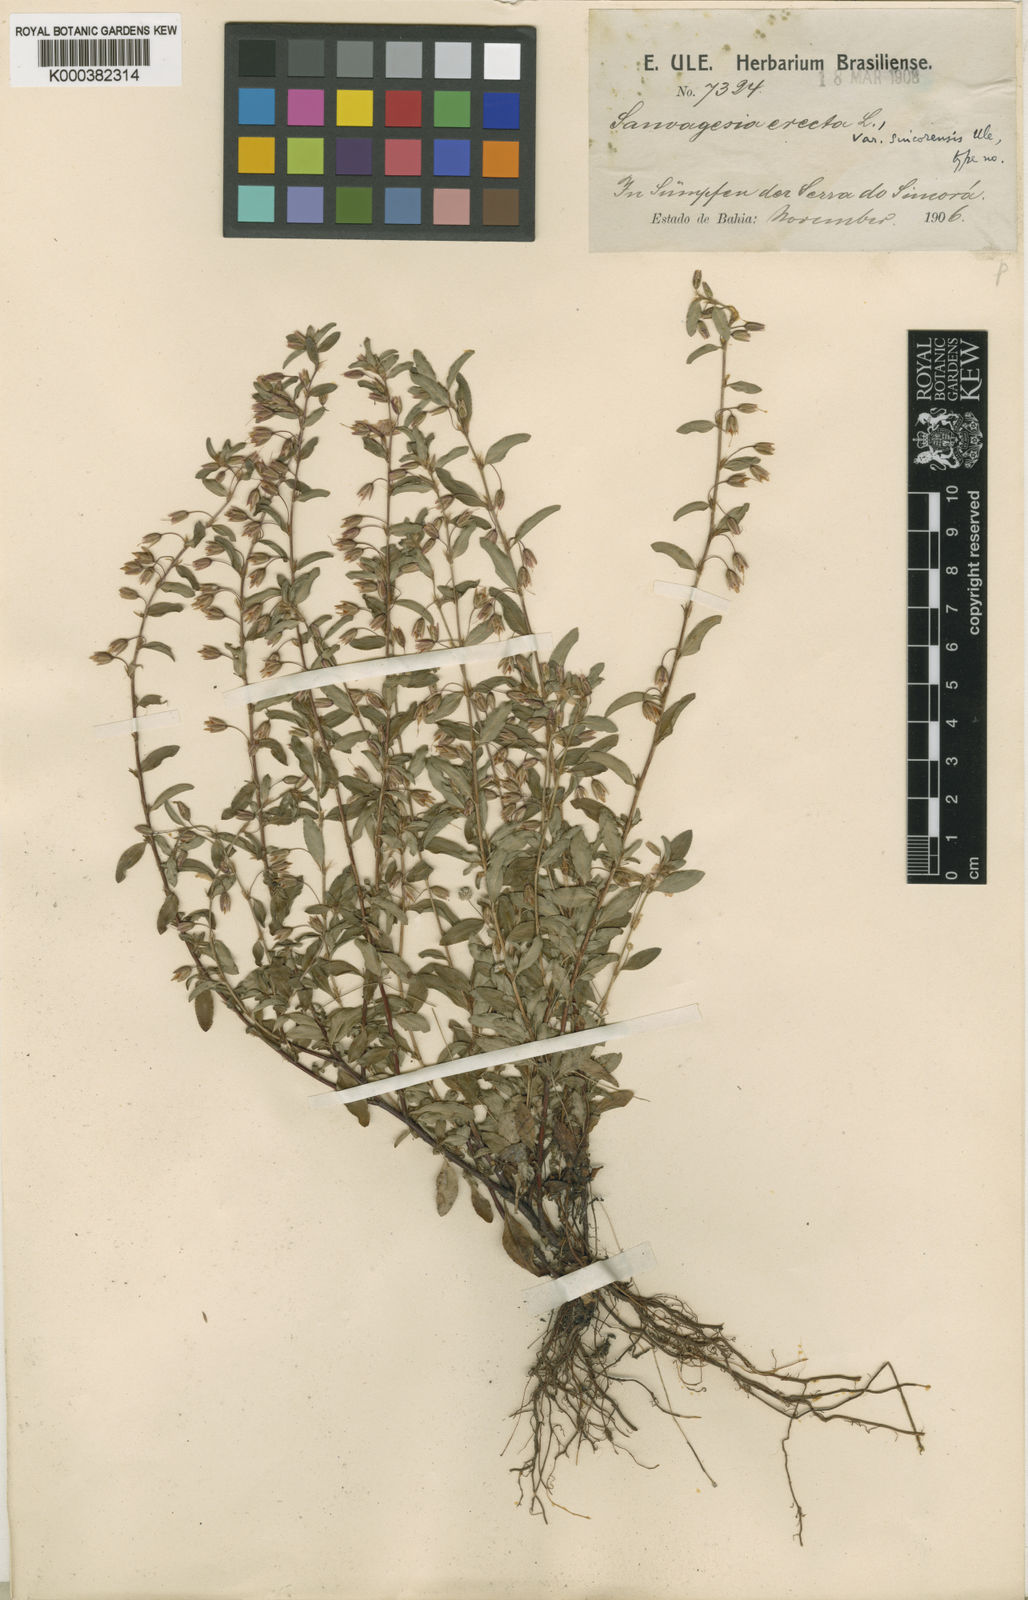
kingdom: Plantae
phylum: Tracheophyta
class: Magnoliopsida
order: Malpighiales
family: Ochnaceae
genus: Sauvagesia
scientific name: Sauvagesia erecta
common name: Creole tea
